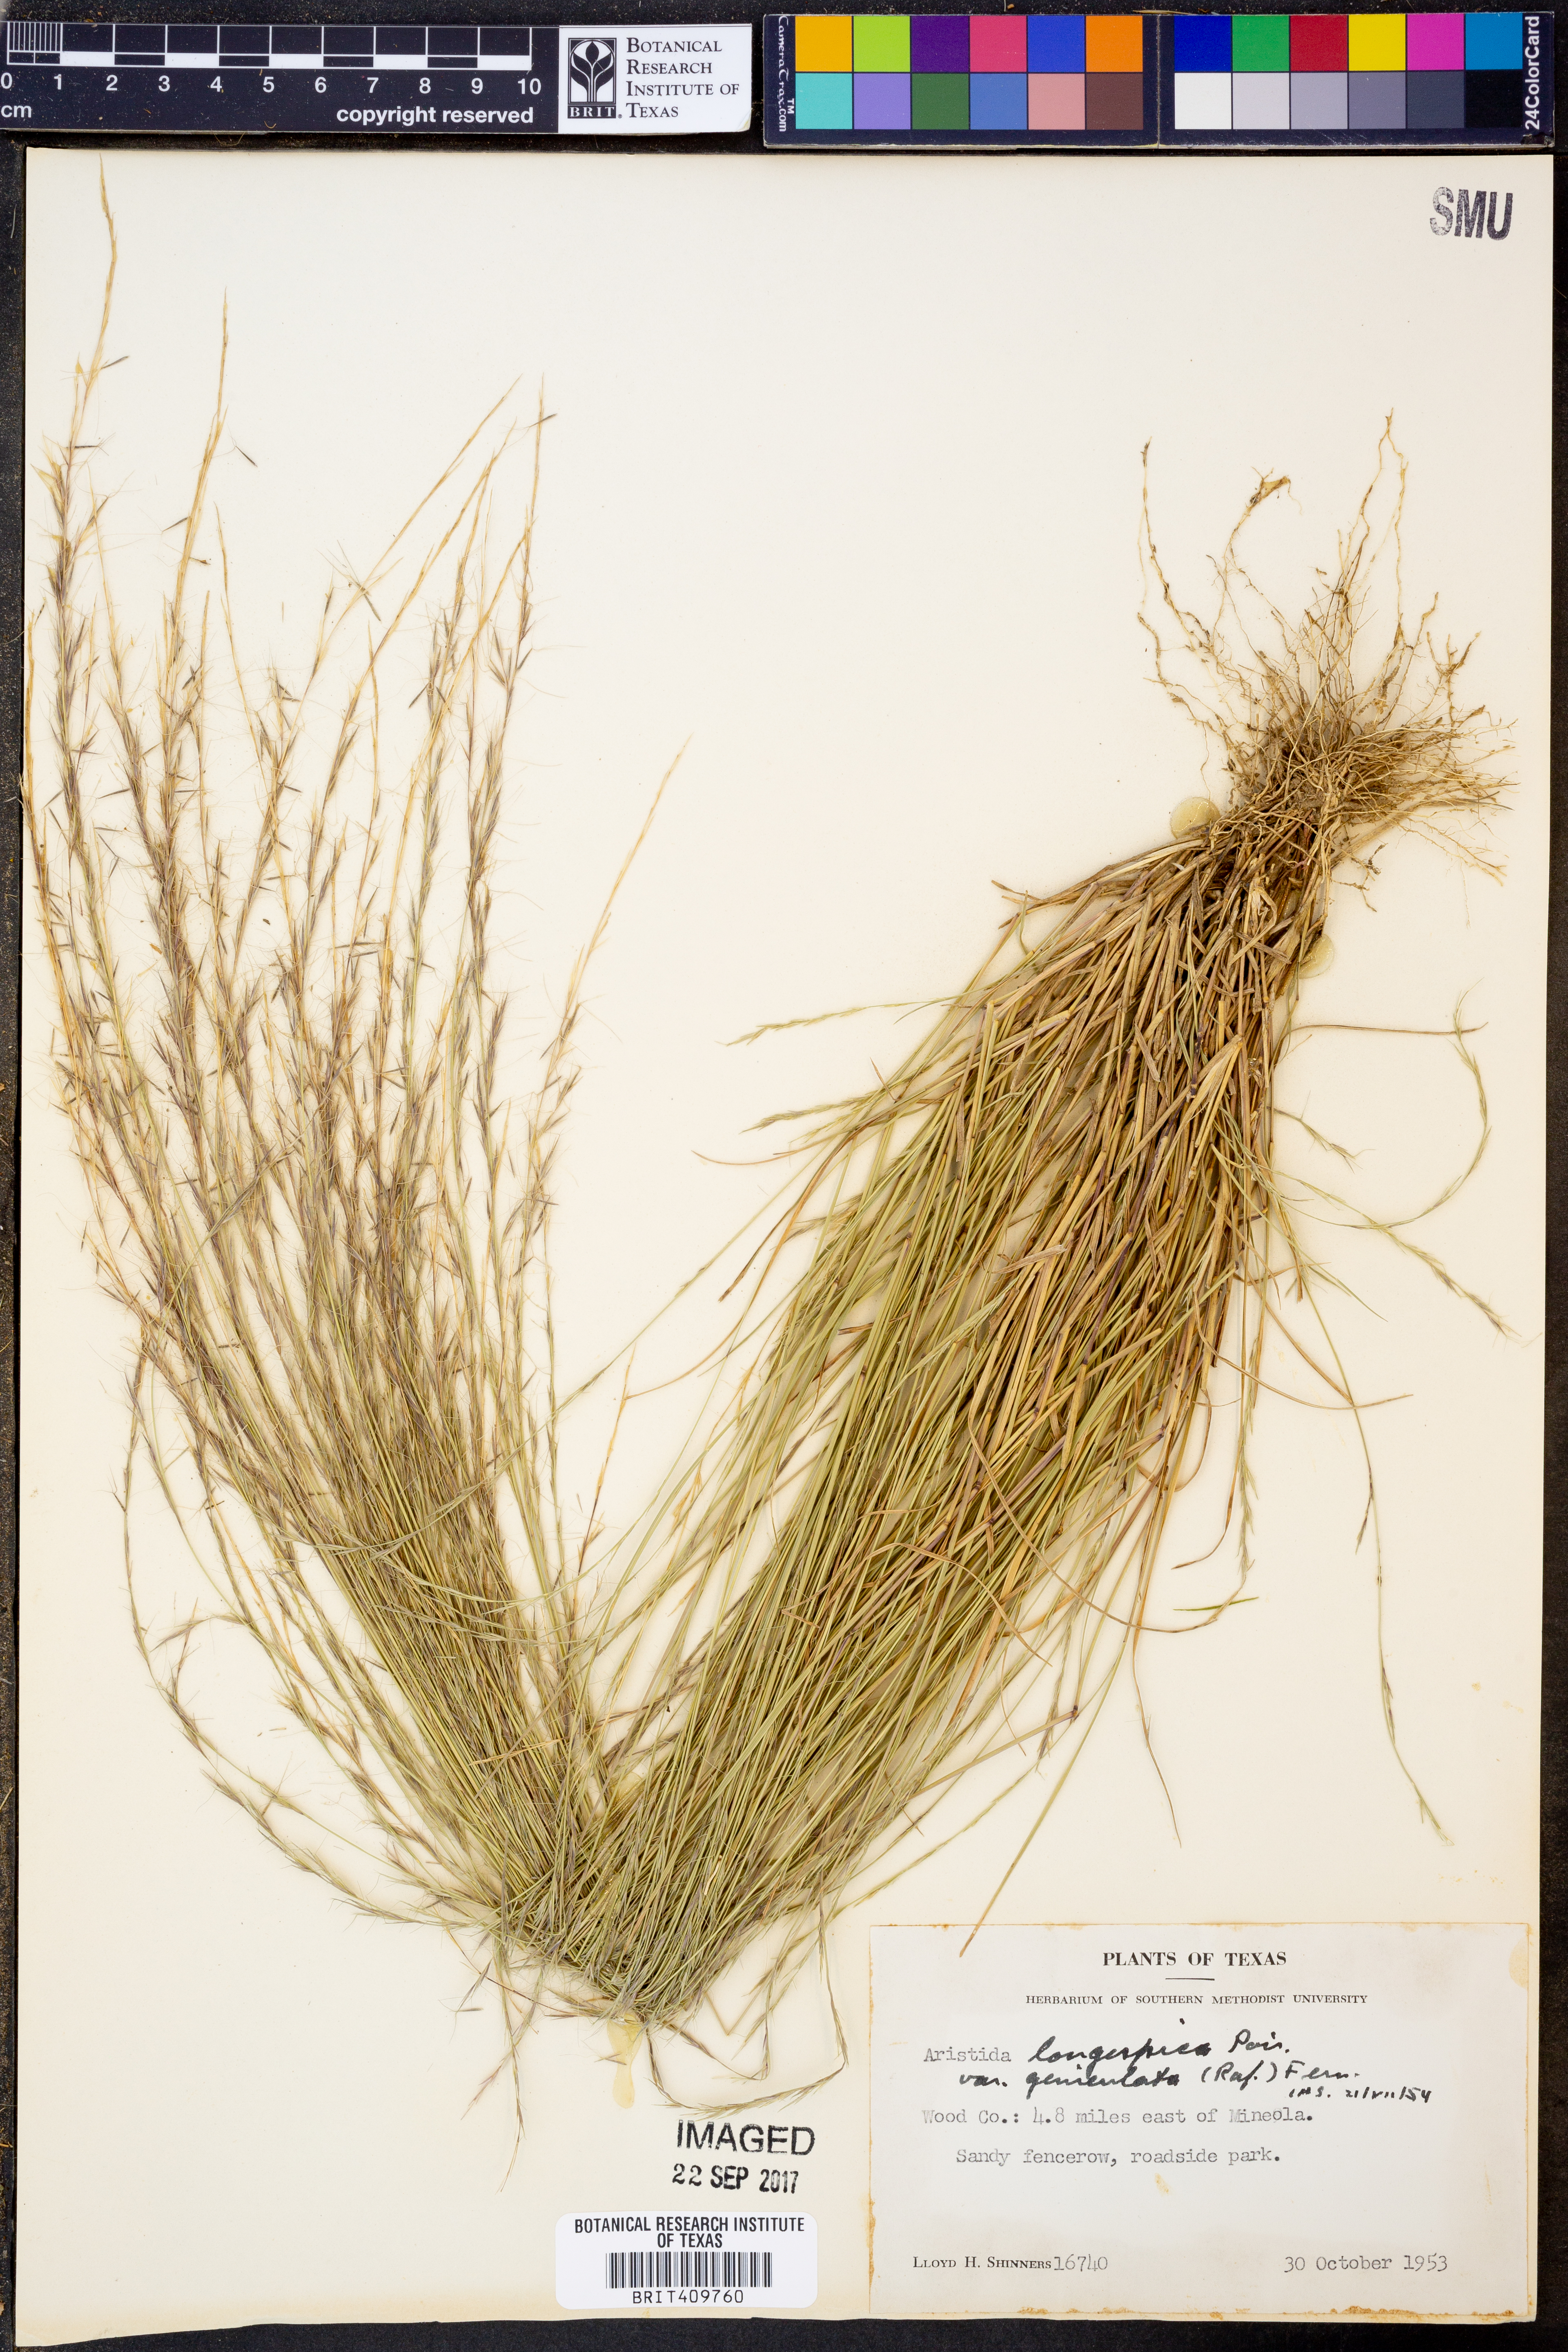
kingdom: Plantae
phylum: Tracheophyta
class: Liliopsida
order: Poales
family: Poaceae
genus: Aristida
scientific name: Aristida longespica
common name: Long-spiked triple-awned grass
